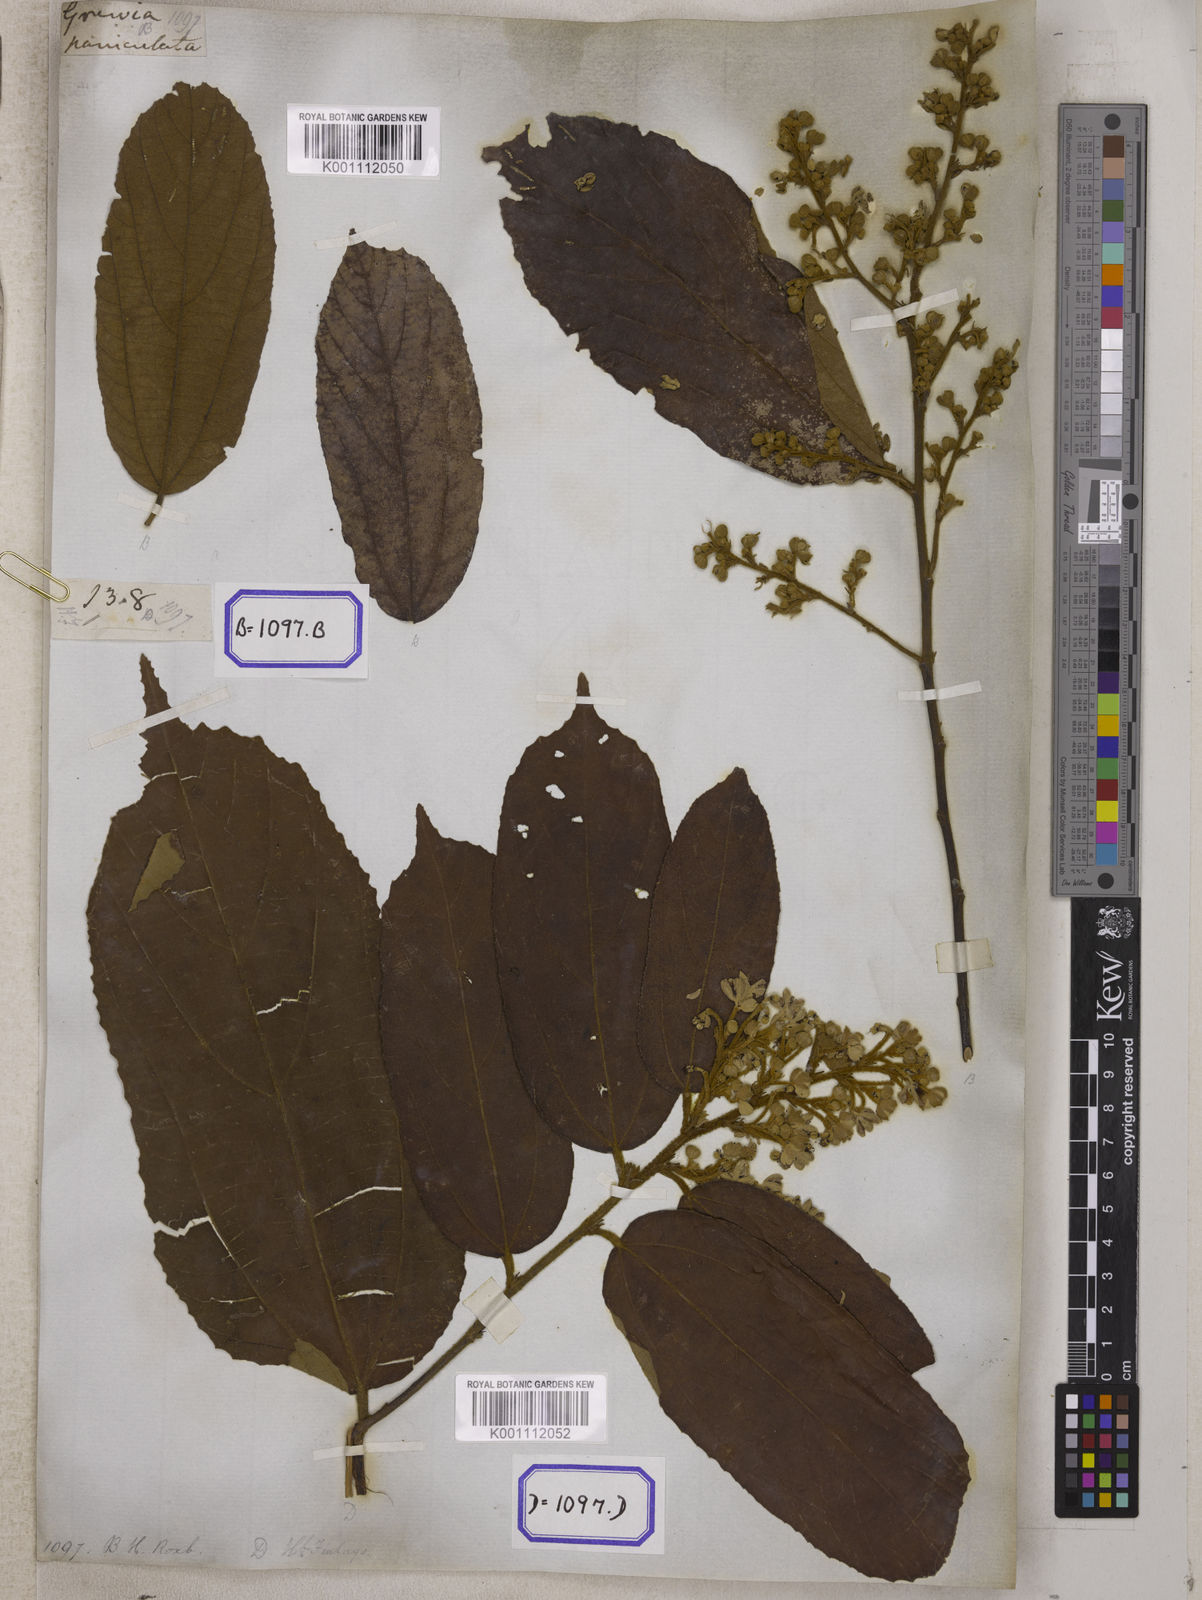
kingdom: Plantae
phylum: Tracheophyta
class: Magnoliopsida
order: Malvales
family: Malvaceae
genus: Grewia
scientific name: Grewia
